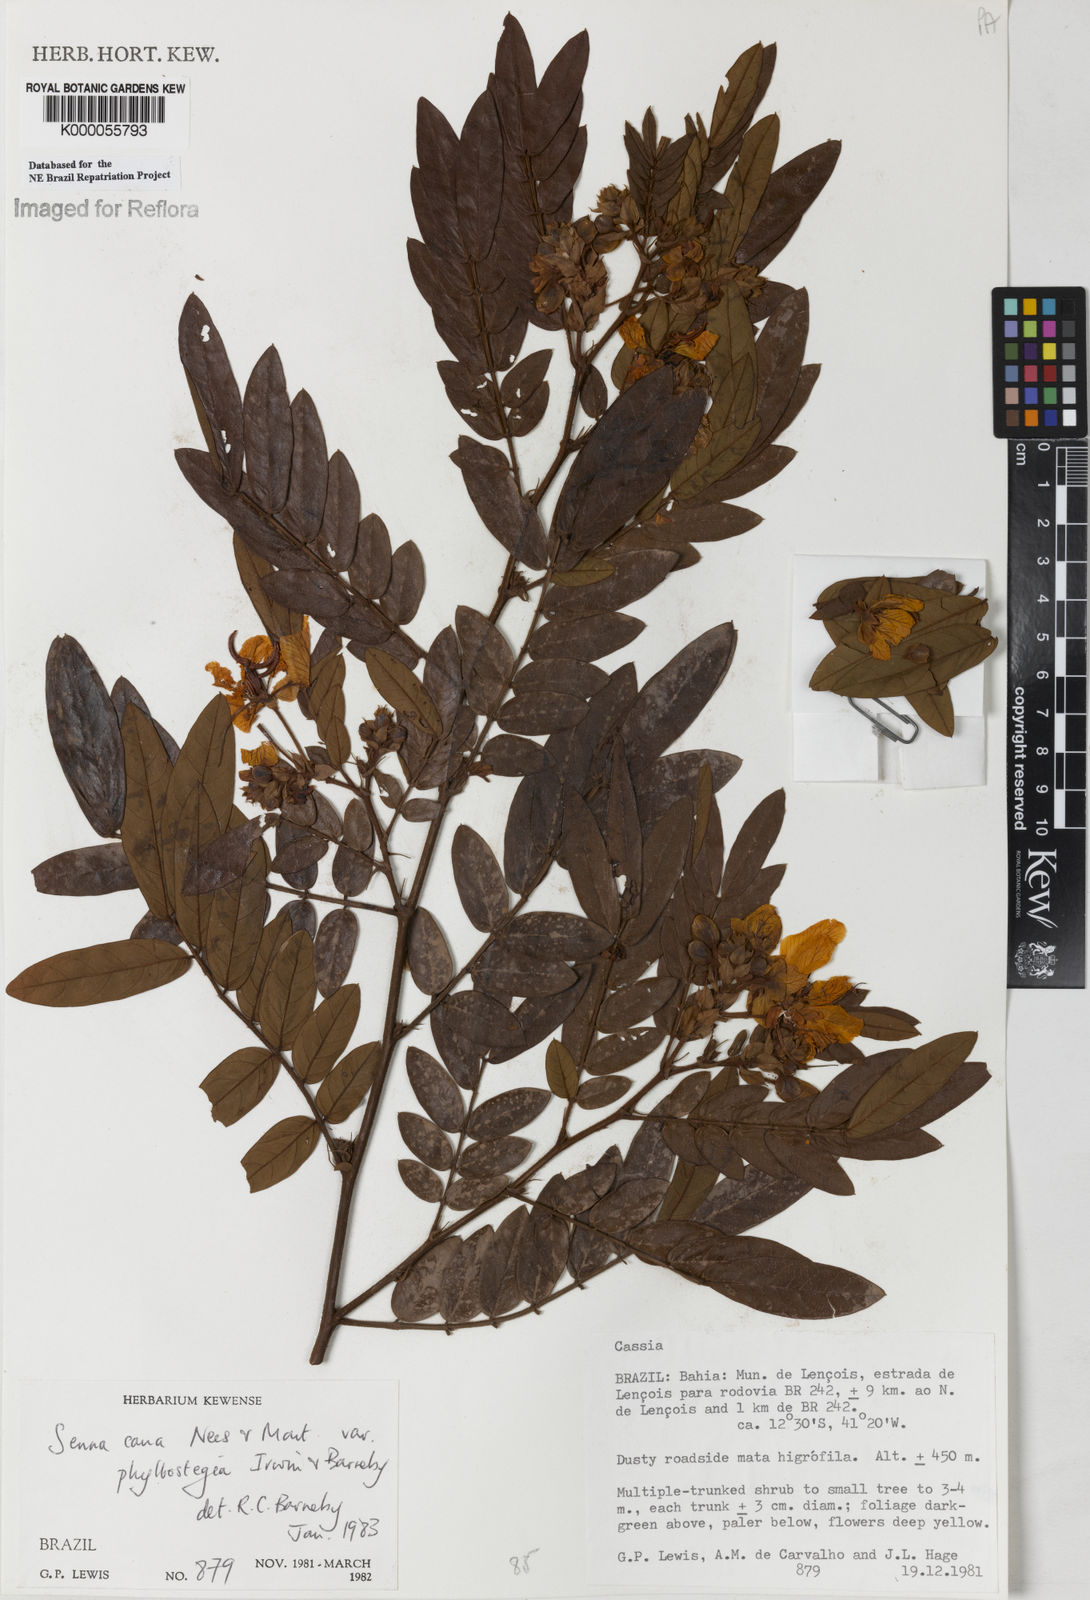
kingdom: Plantae
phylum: Tracheophyta
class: Magnoliopsida
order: Fabales
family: Fabaceae
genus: Senna
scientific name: Senna cana
